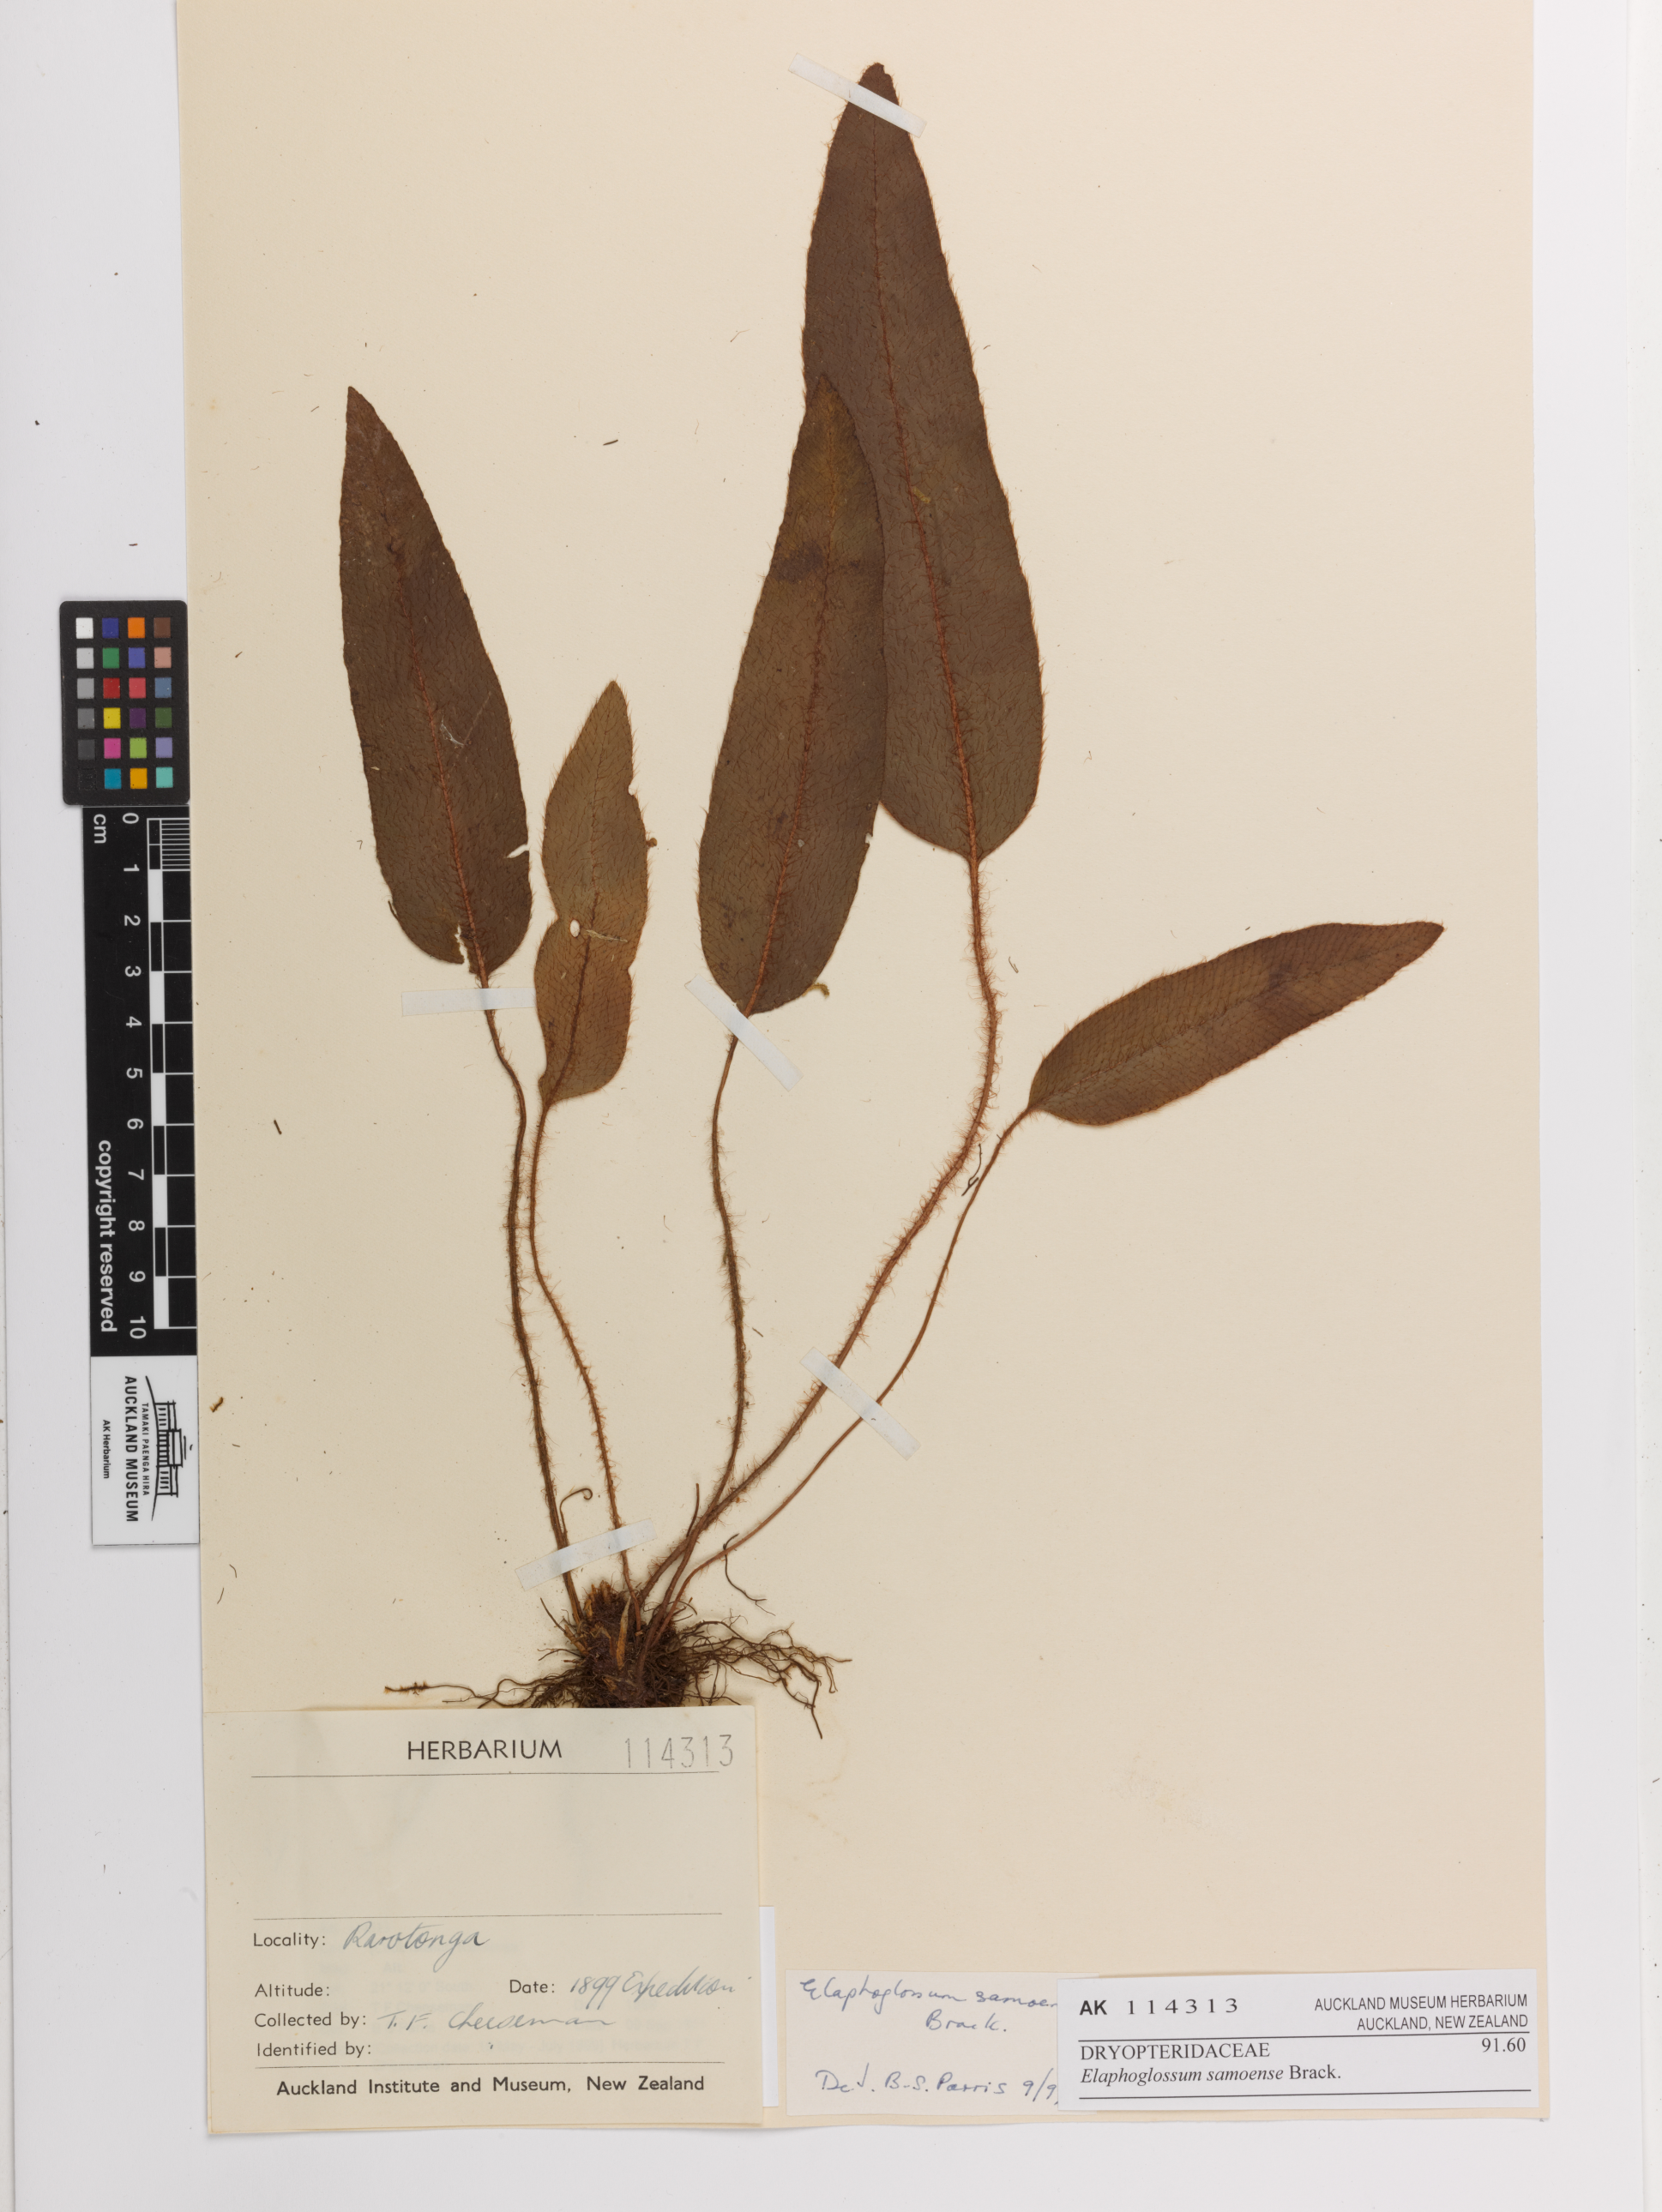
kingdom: Plantae
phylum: Tracheophyta
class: Polypodiopsida
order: Polypodiales
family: Dryopteridaceae
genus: Elaphoglossum
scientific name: Elaphoglossum samoense
